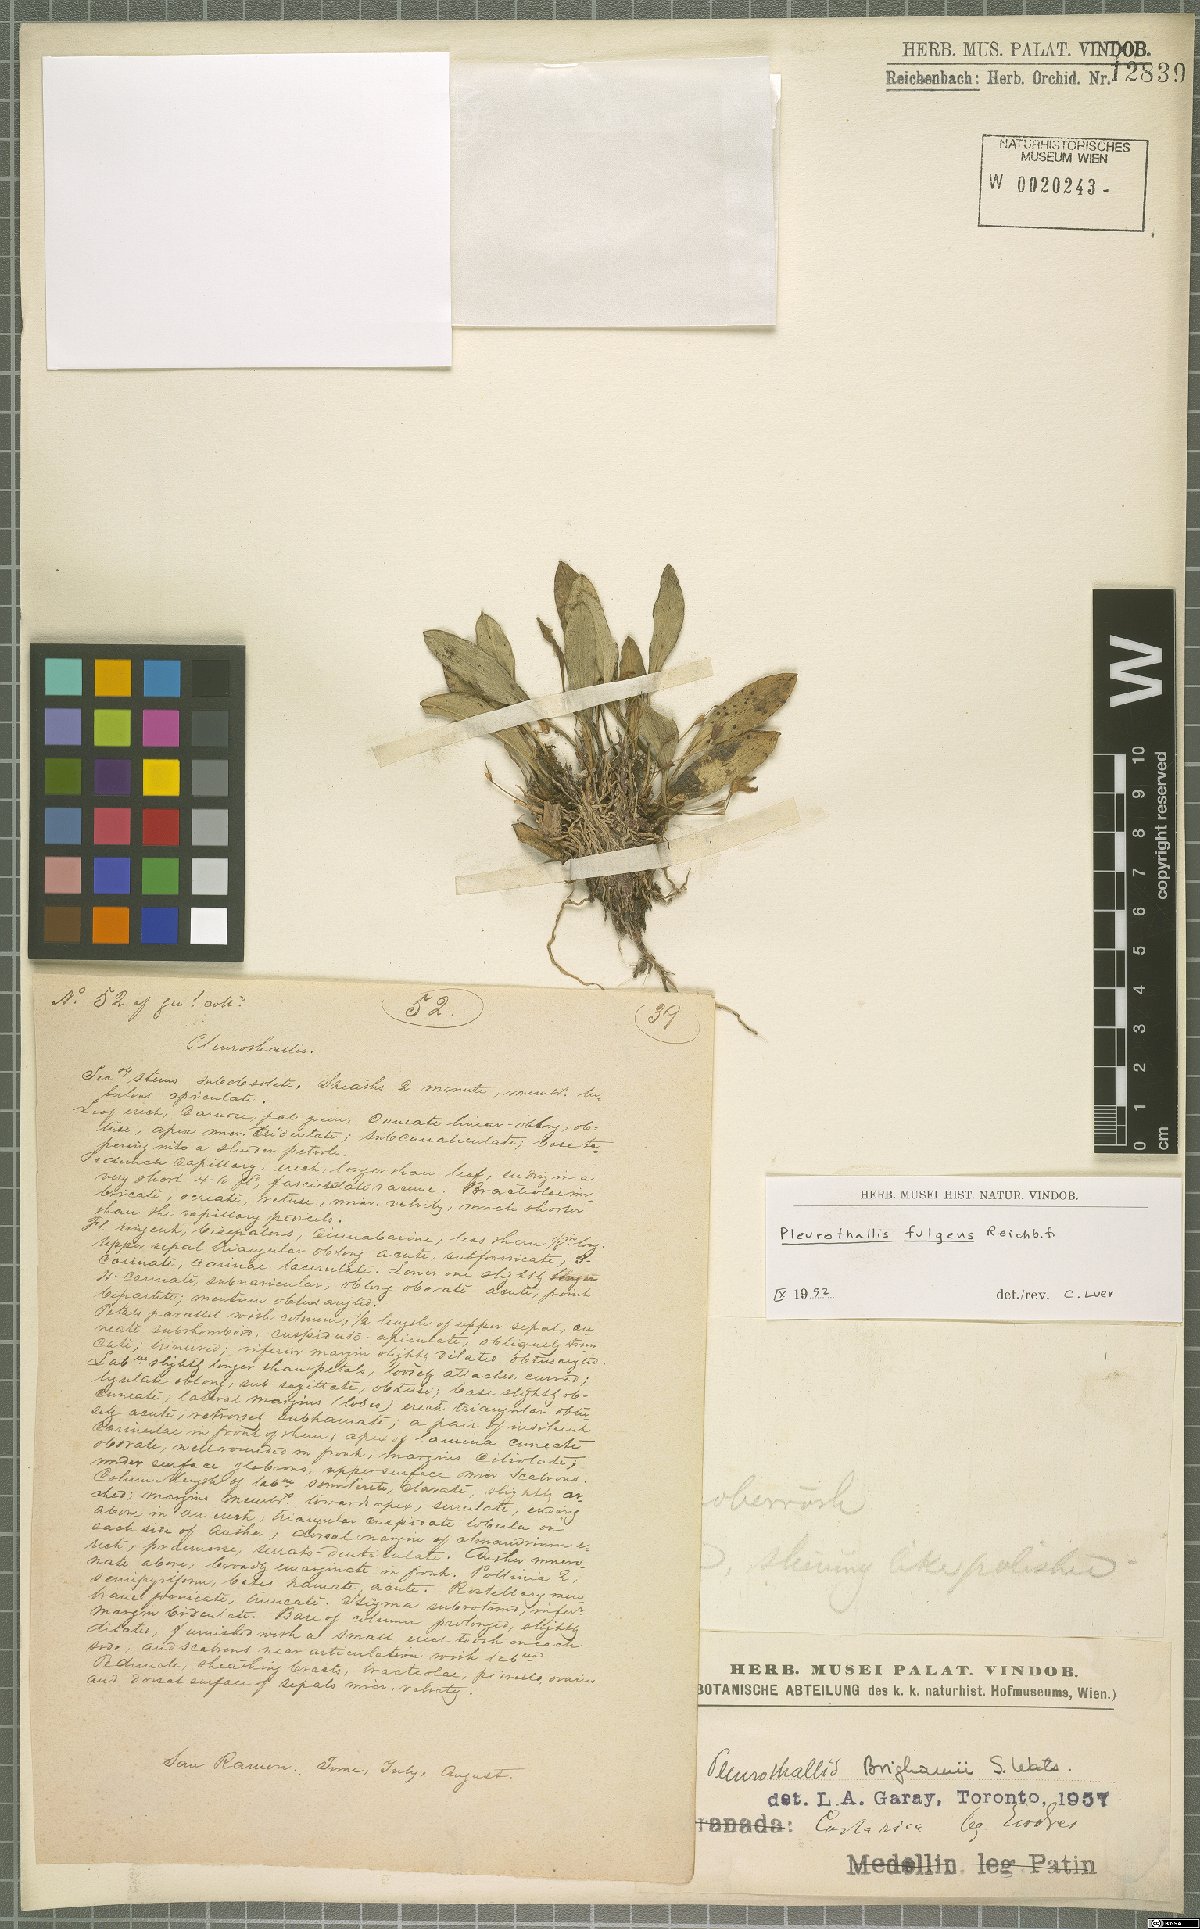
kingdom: Plantae
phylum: Tracheophyta
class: Liliopsida
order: Asparagales
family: Orchidaceae
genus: Specklinia
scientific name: Specklinia fulgens
